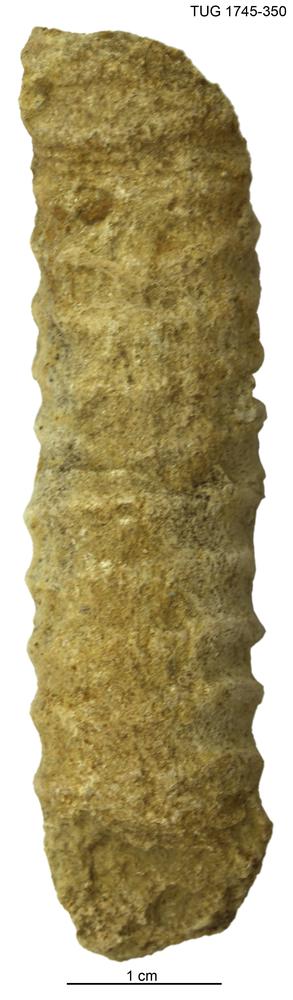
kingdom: Animalia
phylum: Mollusca
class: Cephalopoda
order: Orthocerida
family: Orthoceratidae
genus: Ctenoceras
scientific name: Ctenoceras
